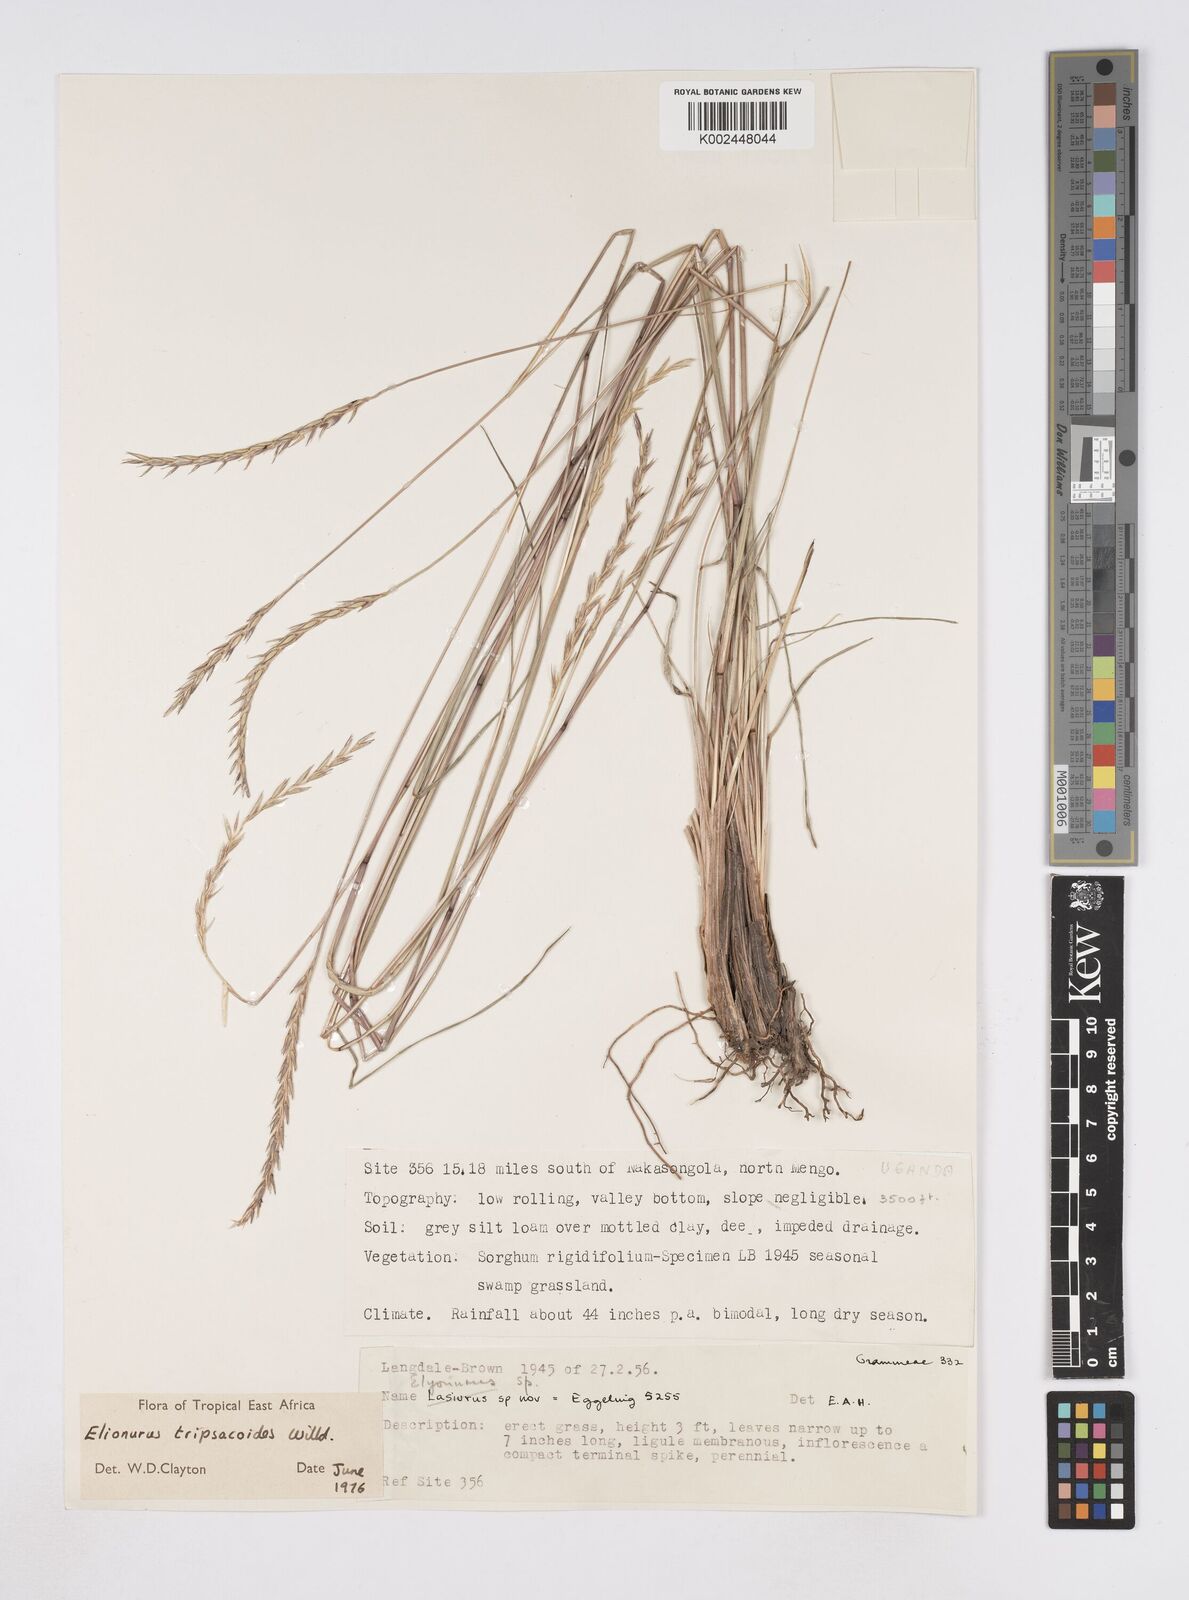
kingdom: Plantae
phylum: Tracheophyta
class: Liliopsida
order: Poales
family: Poaceae
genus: Elionurus
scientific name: Elionurus tripsacoides
